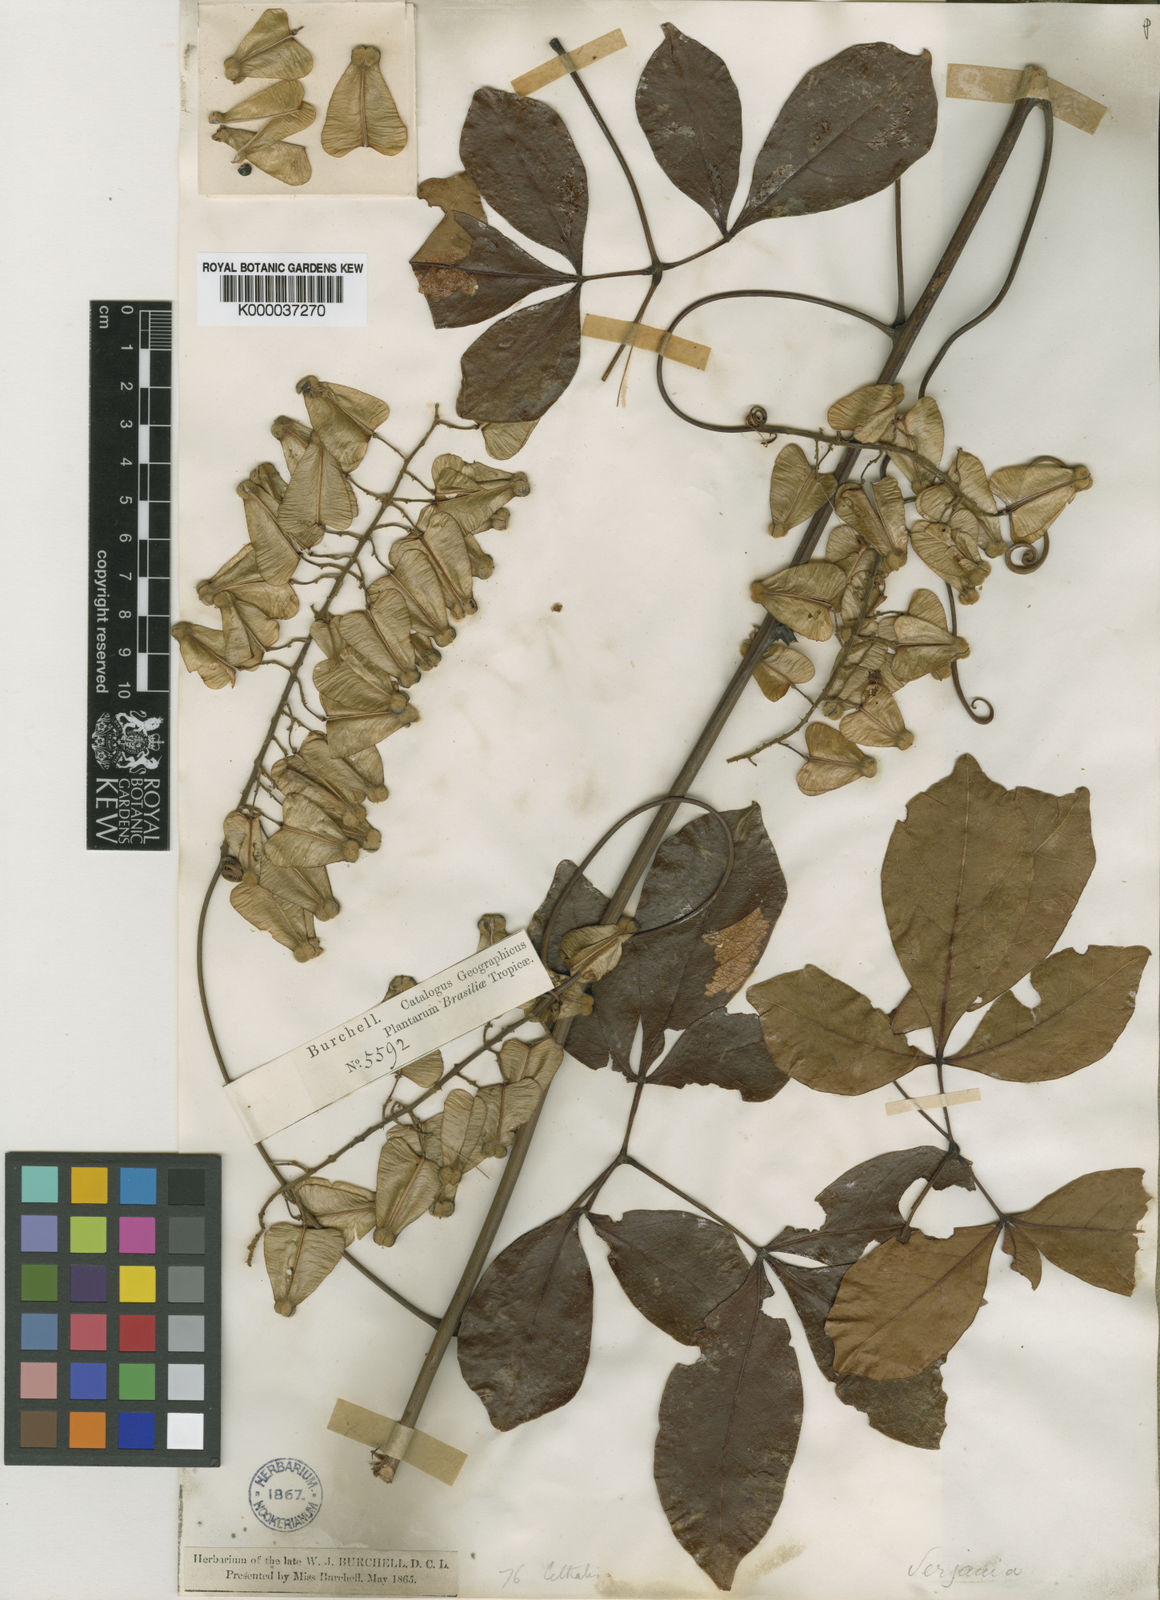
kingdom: Plantae
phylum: Tracheophyta
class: Magnoliopsida
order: Sapindales
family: Sapindaceae
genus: Serjania
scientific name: Serjania lethalis
